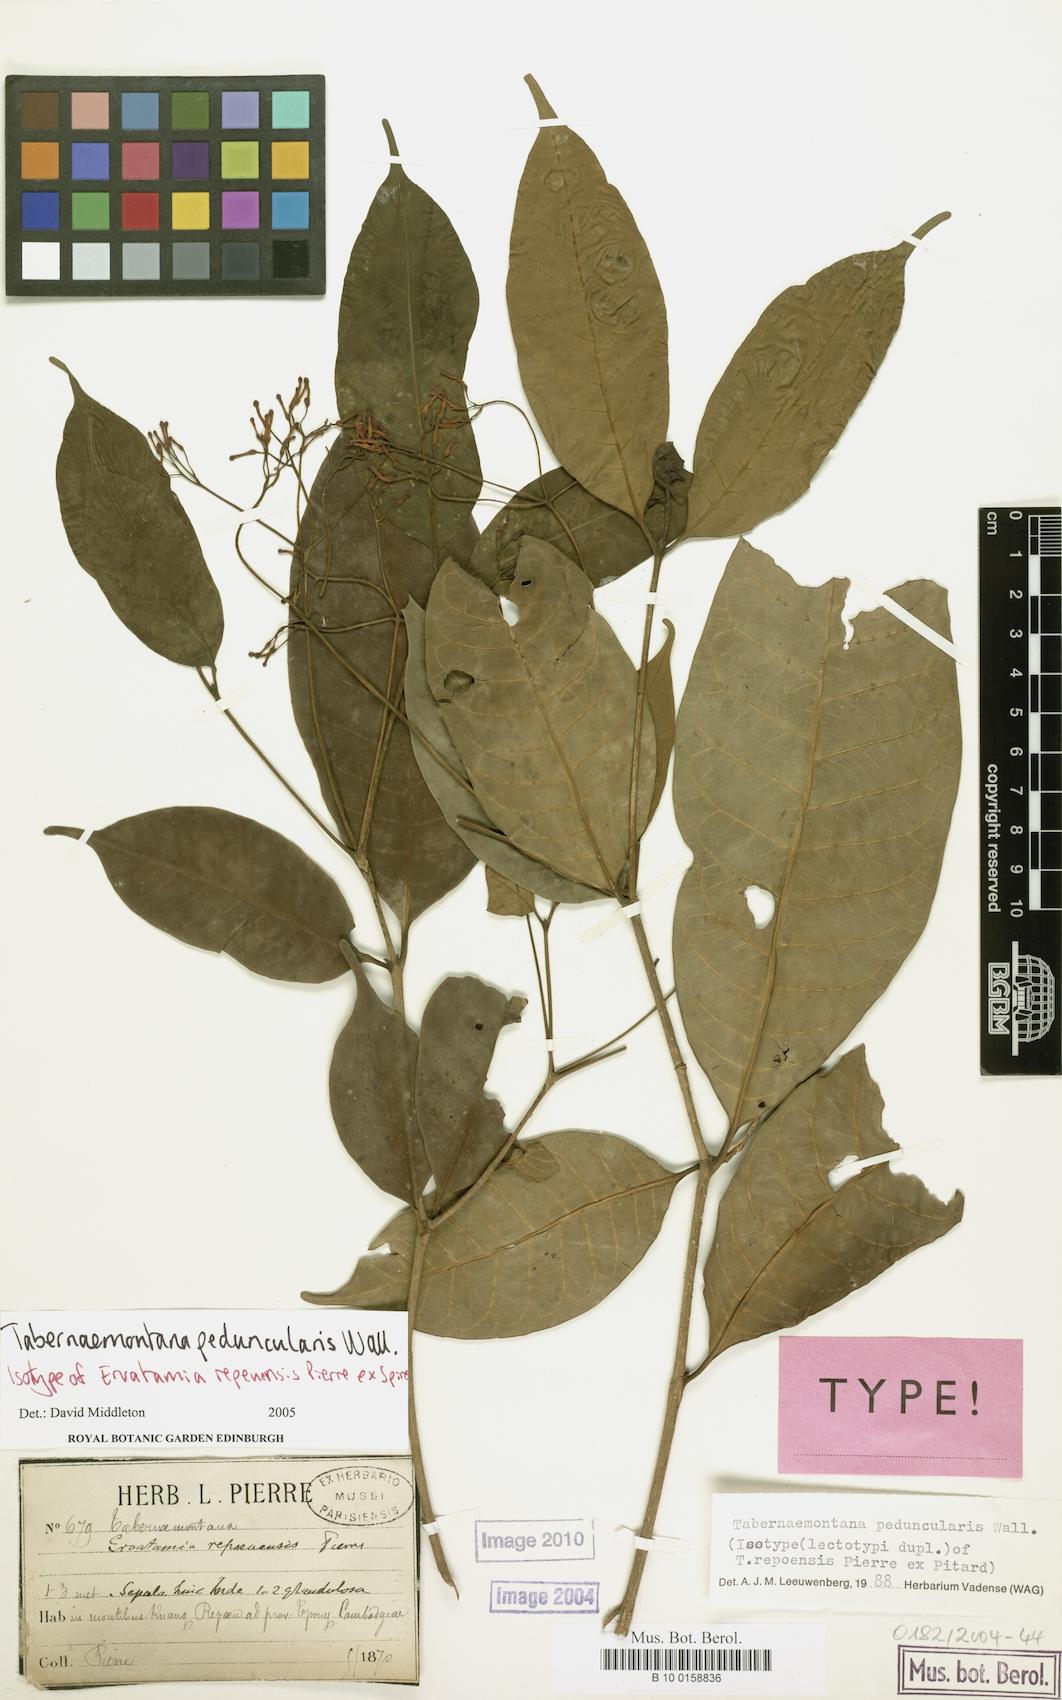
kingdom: Plantae
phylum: Tracheophyta
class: Magnoliopsida
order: Gentianales
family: Apocynaceae
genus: Tabernaemontana
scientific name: Tabernaemontana peduncularis
